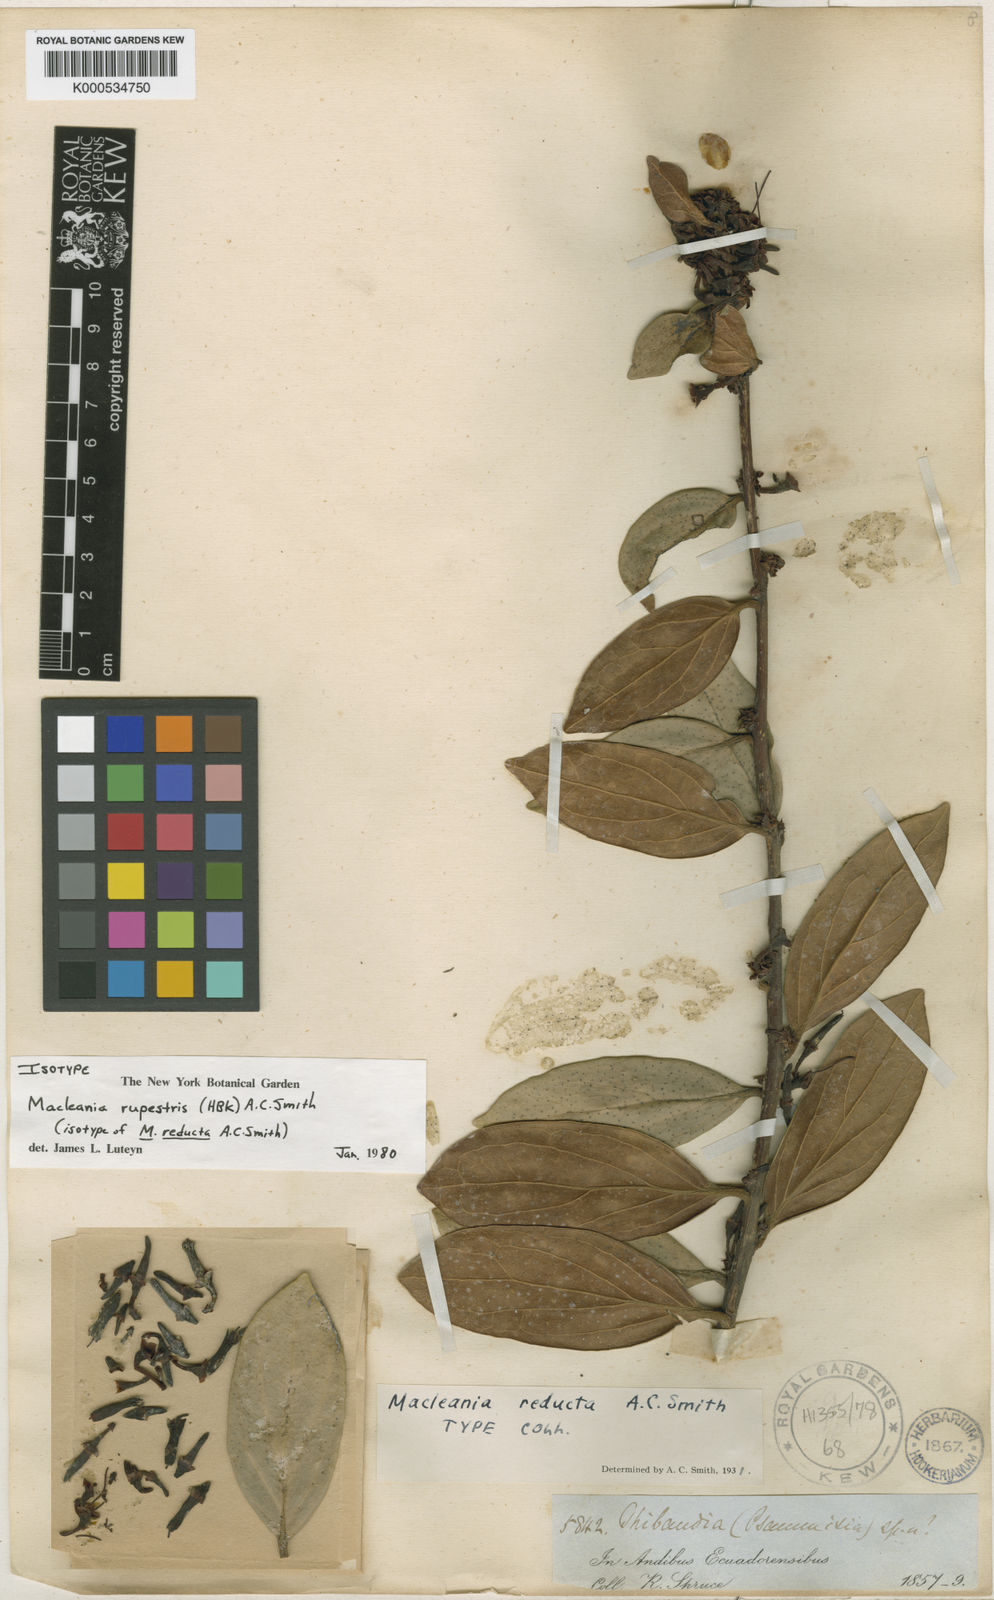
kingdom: Plantae
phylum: Tracheophyta
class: Magnoliopsida
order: Ericales
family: Ericaceae
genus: Macleania
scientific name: Macleania rupestris
